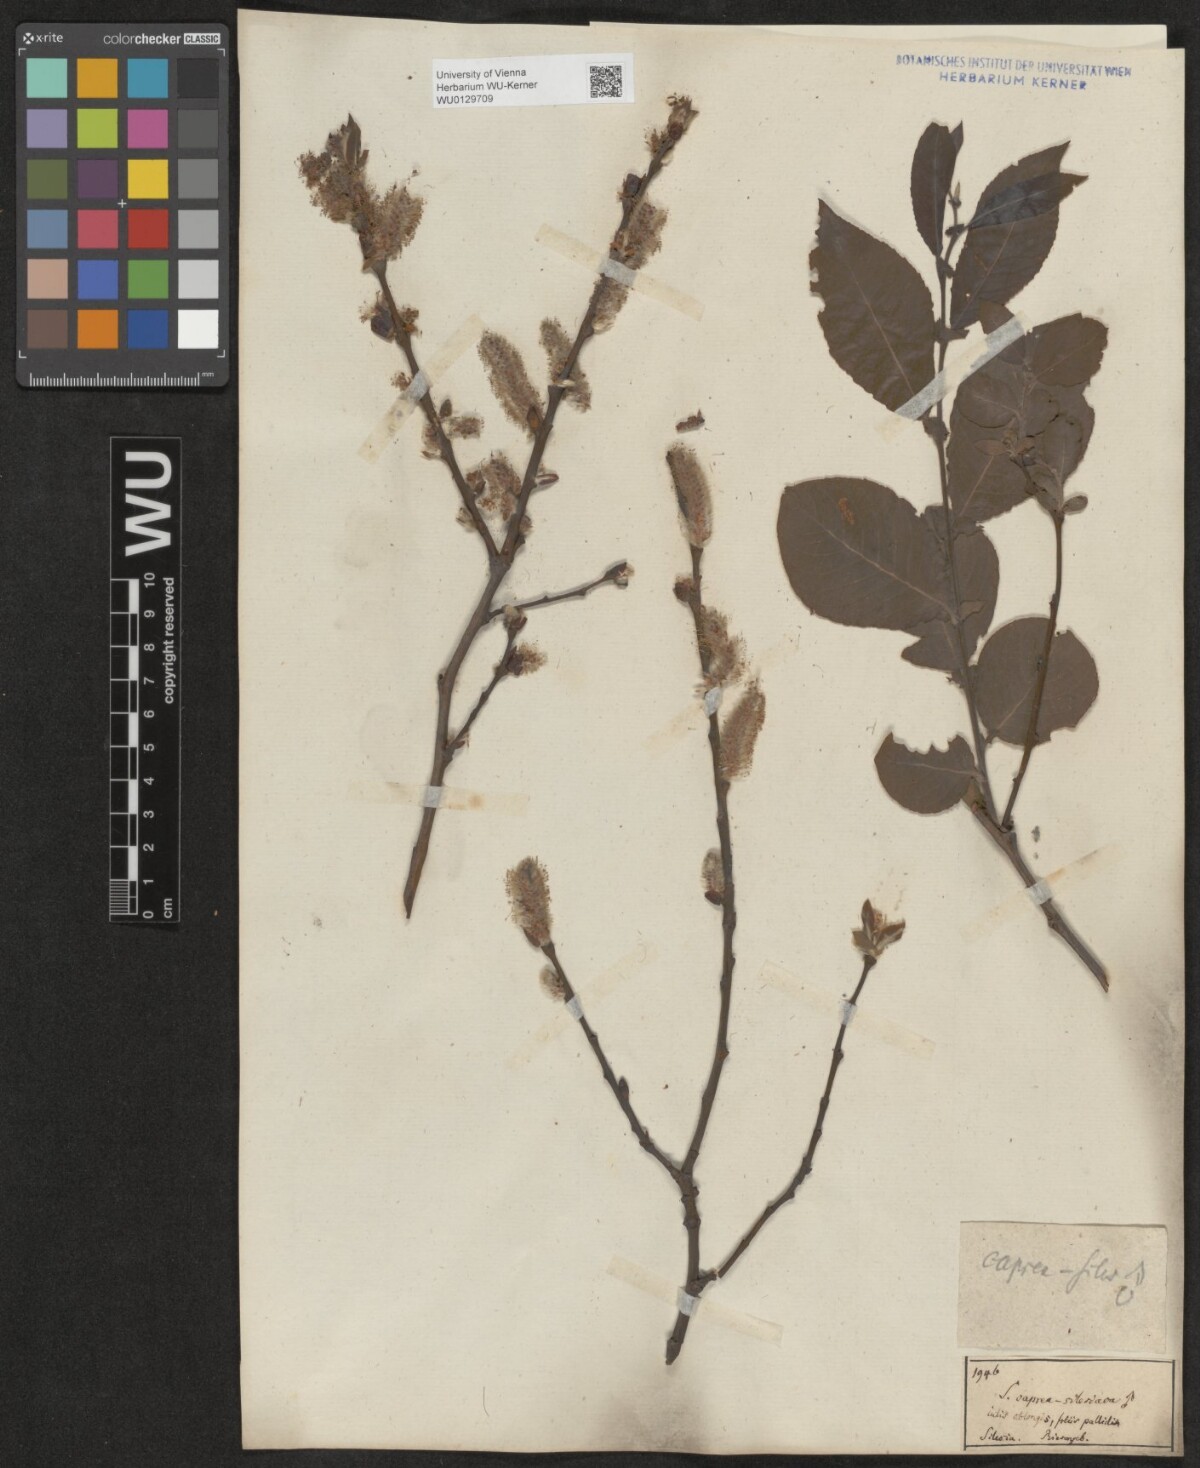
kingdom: Plantae
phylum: Tracheophyta
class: Magnoliopsida
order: Malpighiales
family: Salicaceae
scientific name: Salicaceae
